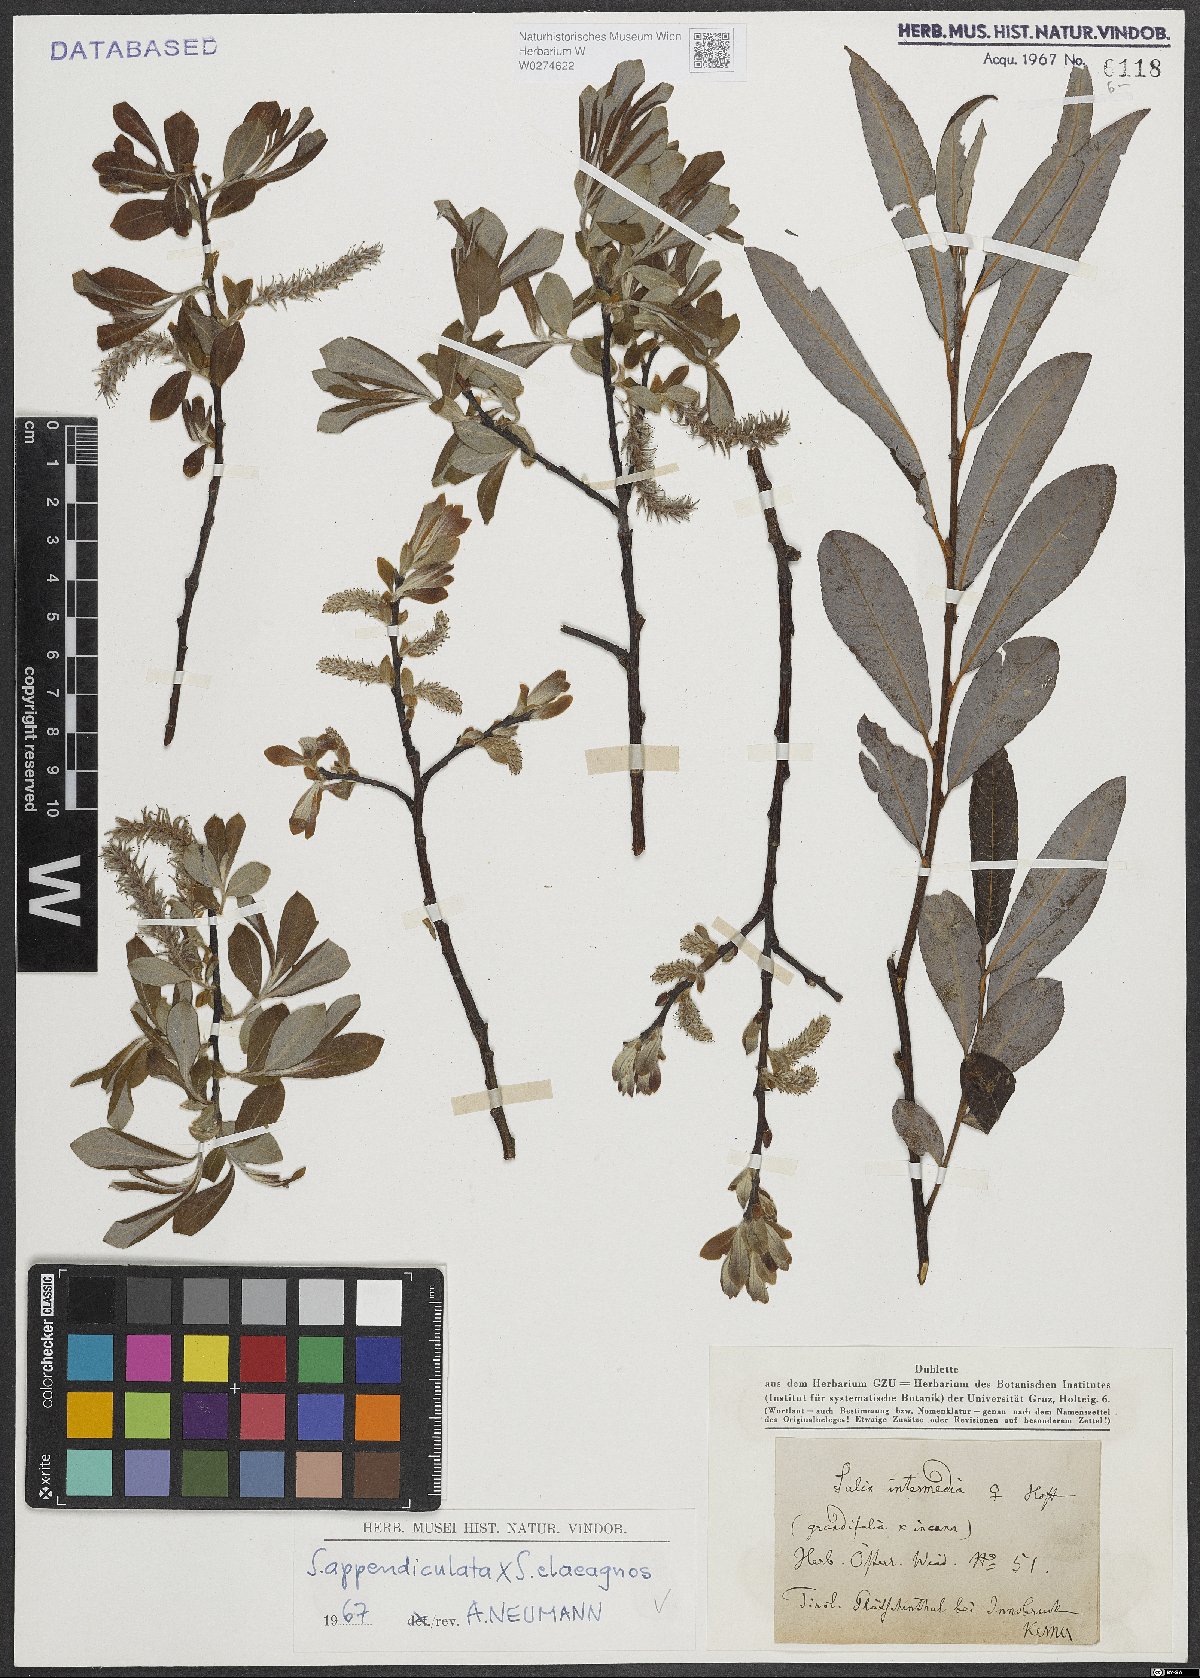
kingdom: Plantae
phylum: Tracheophyta
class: Magnoliopsida
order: Malpighiales
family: Salicaceae
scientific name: Salicaceae
